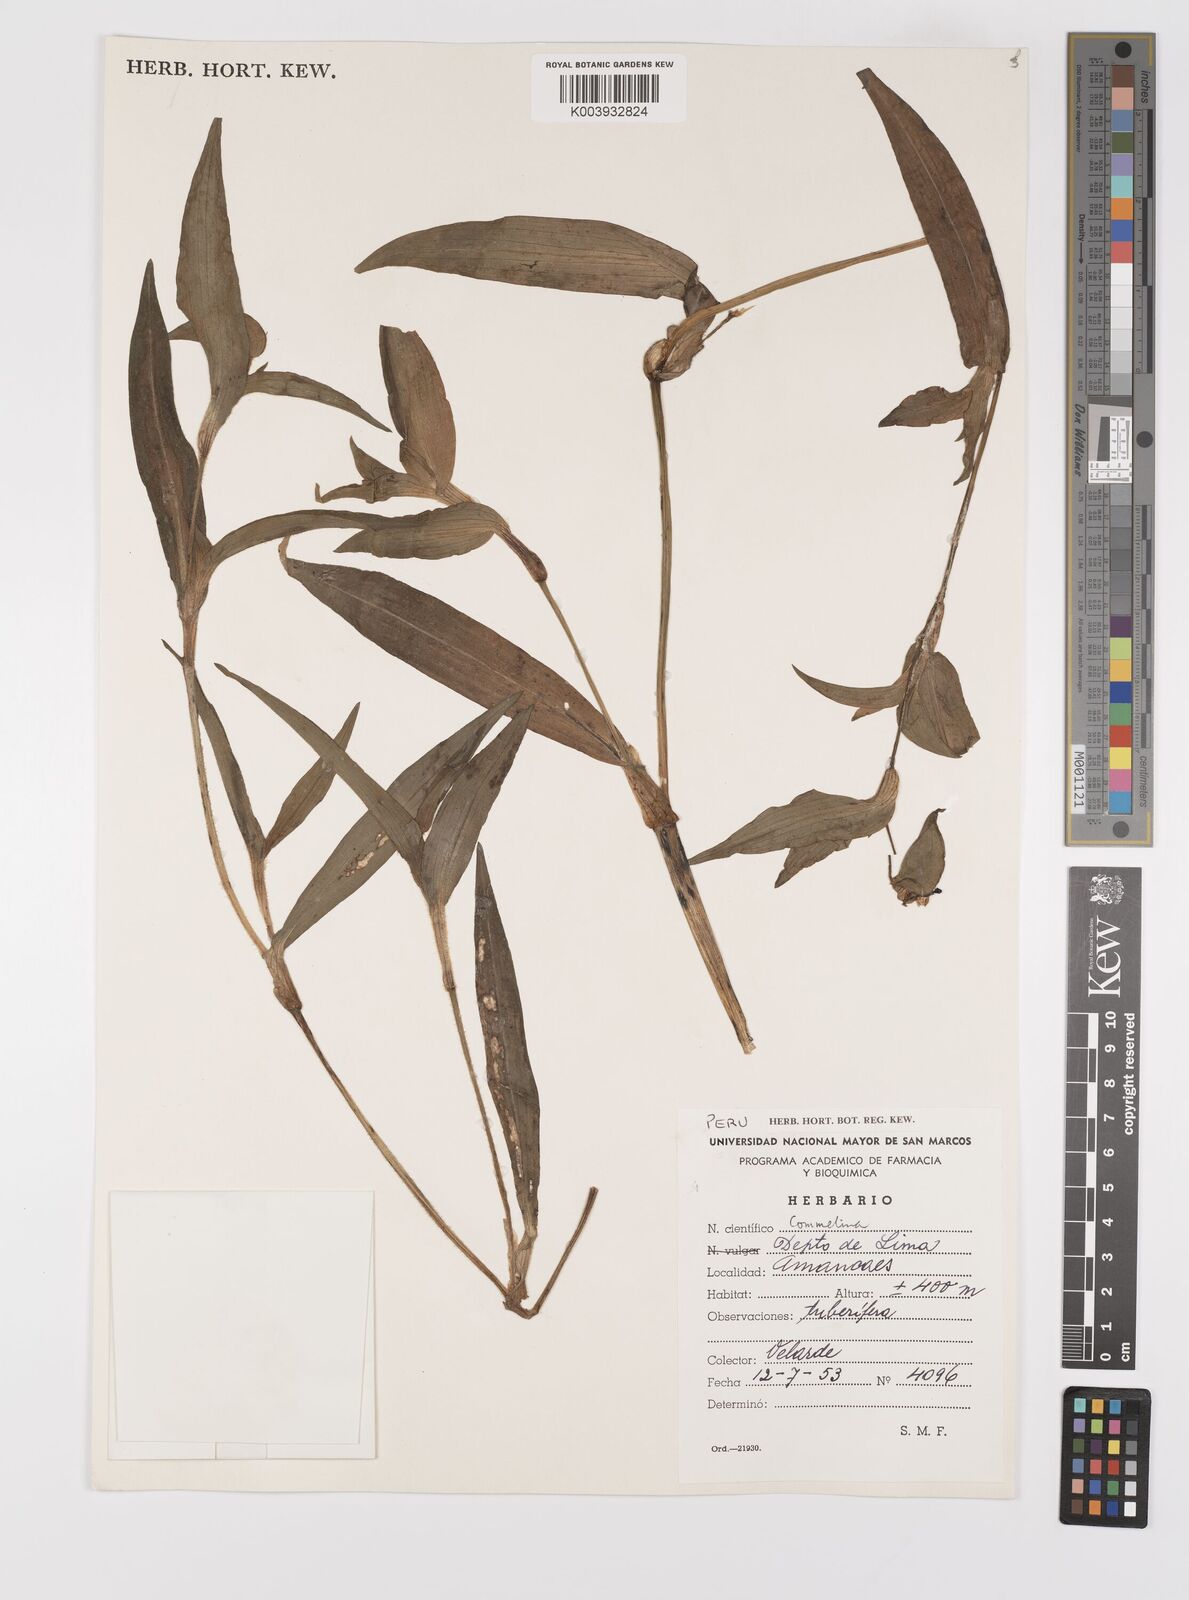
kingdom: Plantae
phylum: Tracheophyta
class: Liliopsida
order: Commelinales
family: Commelinaceae
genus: Commelina
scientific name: Commelina
